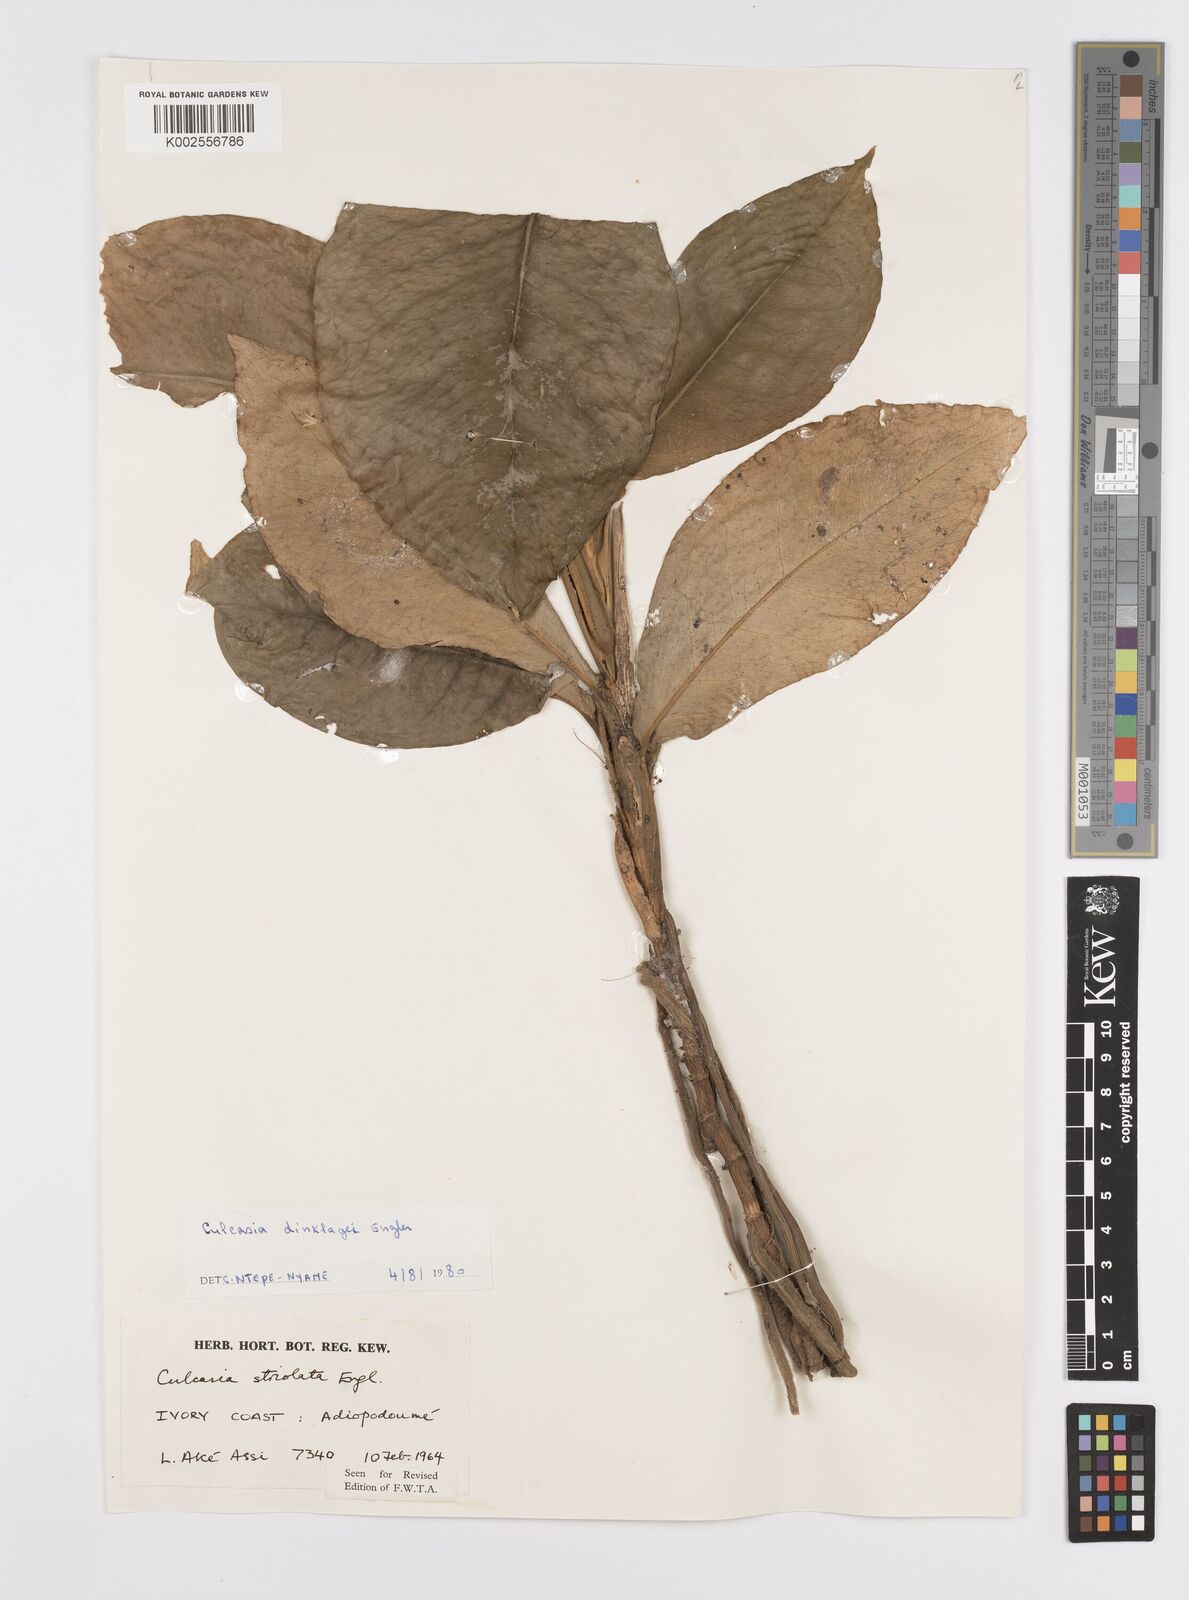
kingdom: Plantae
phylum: Tracheophyta
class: Liliopsida
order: Alismatales
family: Araceae
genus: Culcasia
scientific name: Culcasia dinklagei
